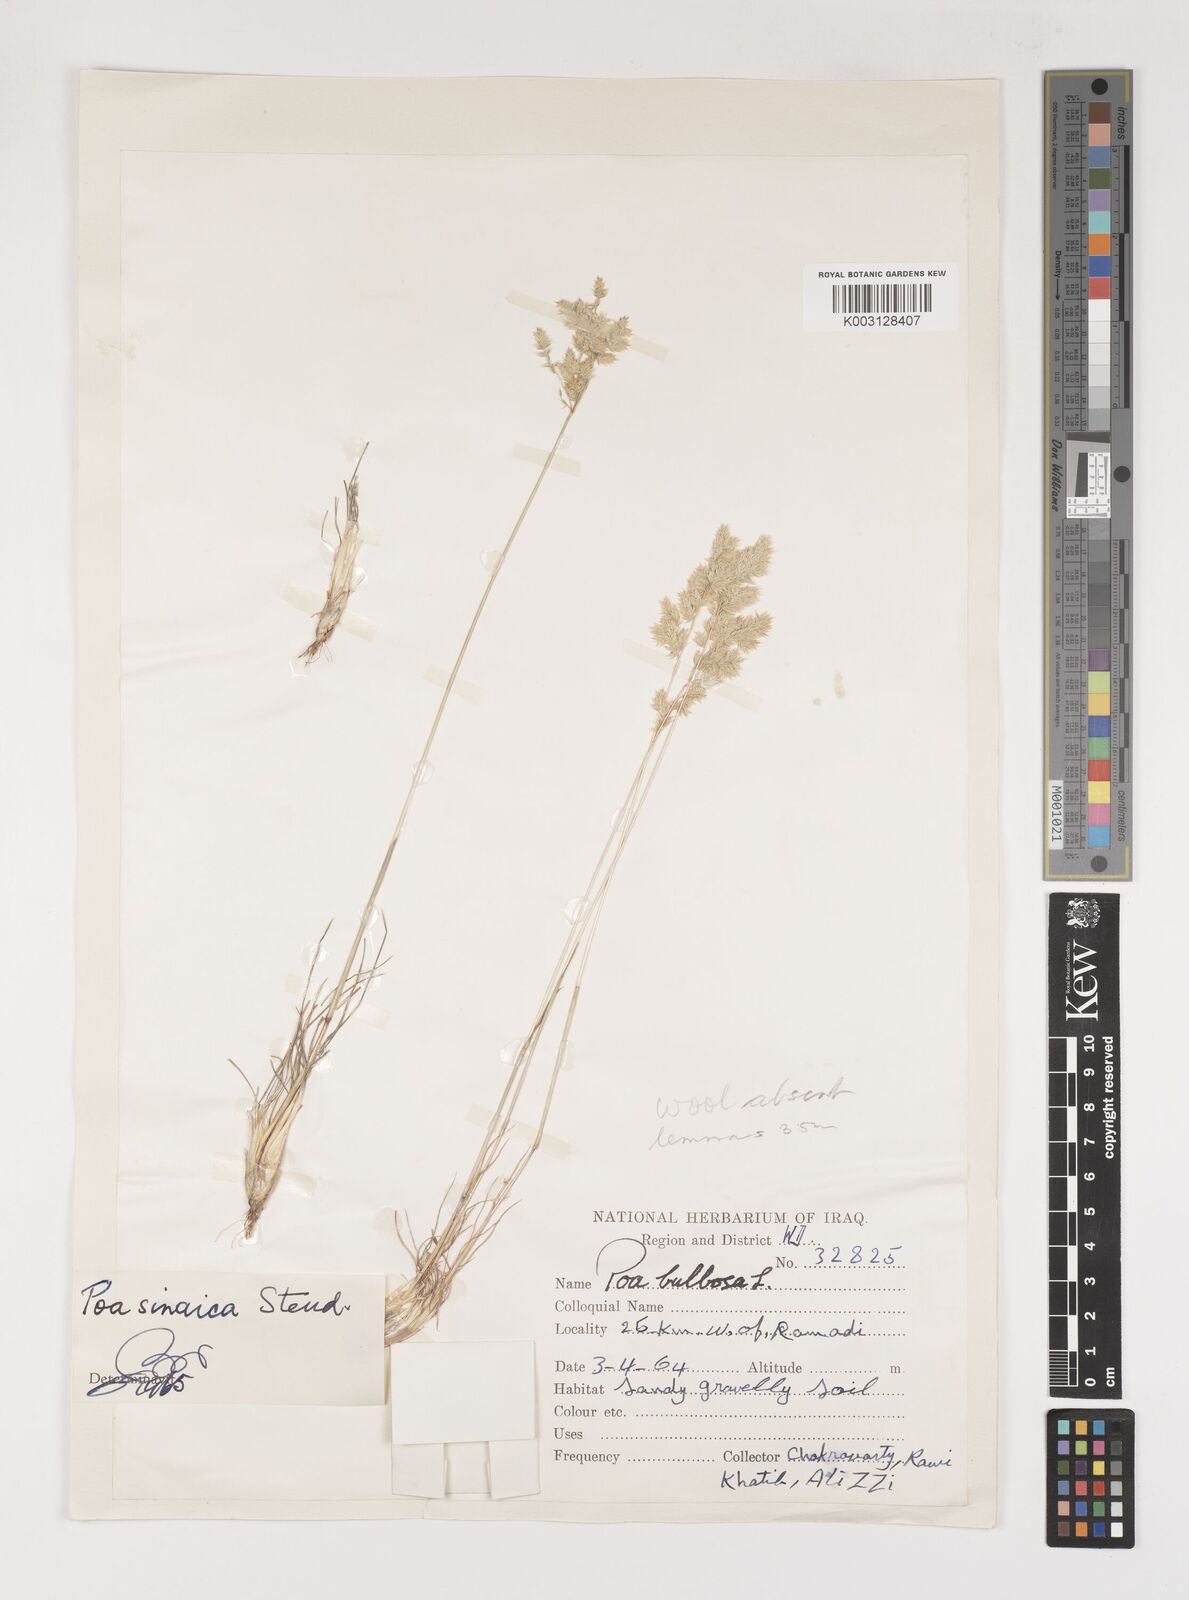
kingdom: Plantae
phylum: Tracheophyta
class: Liliopsida
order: Poales
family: Poaceae
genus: Poa
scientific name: Poa sinaica
